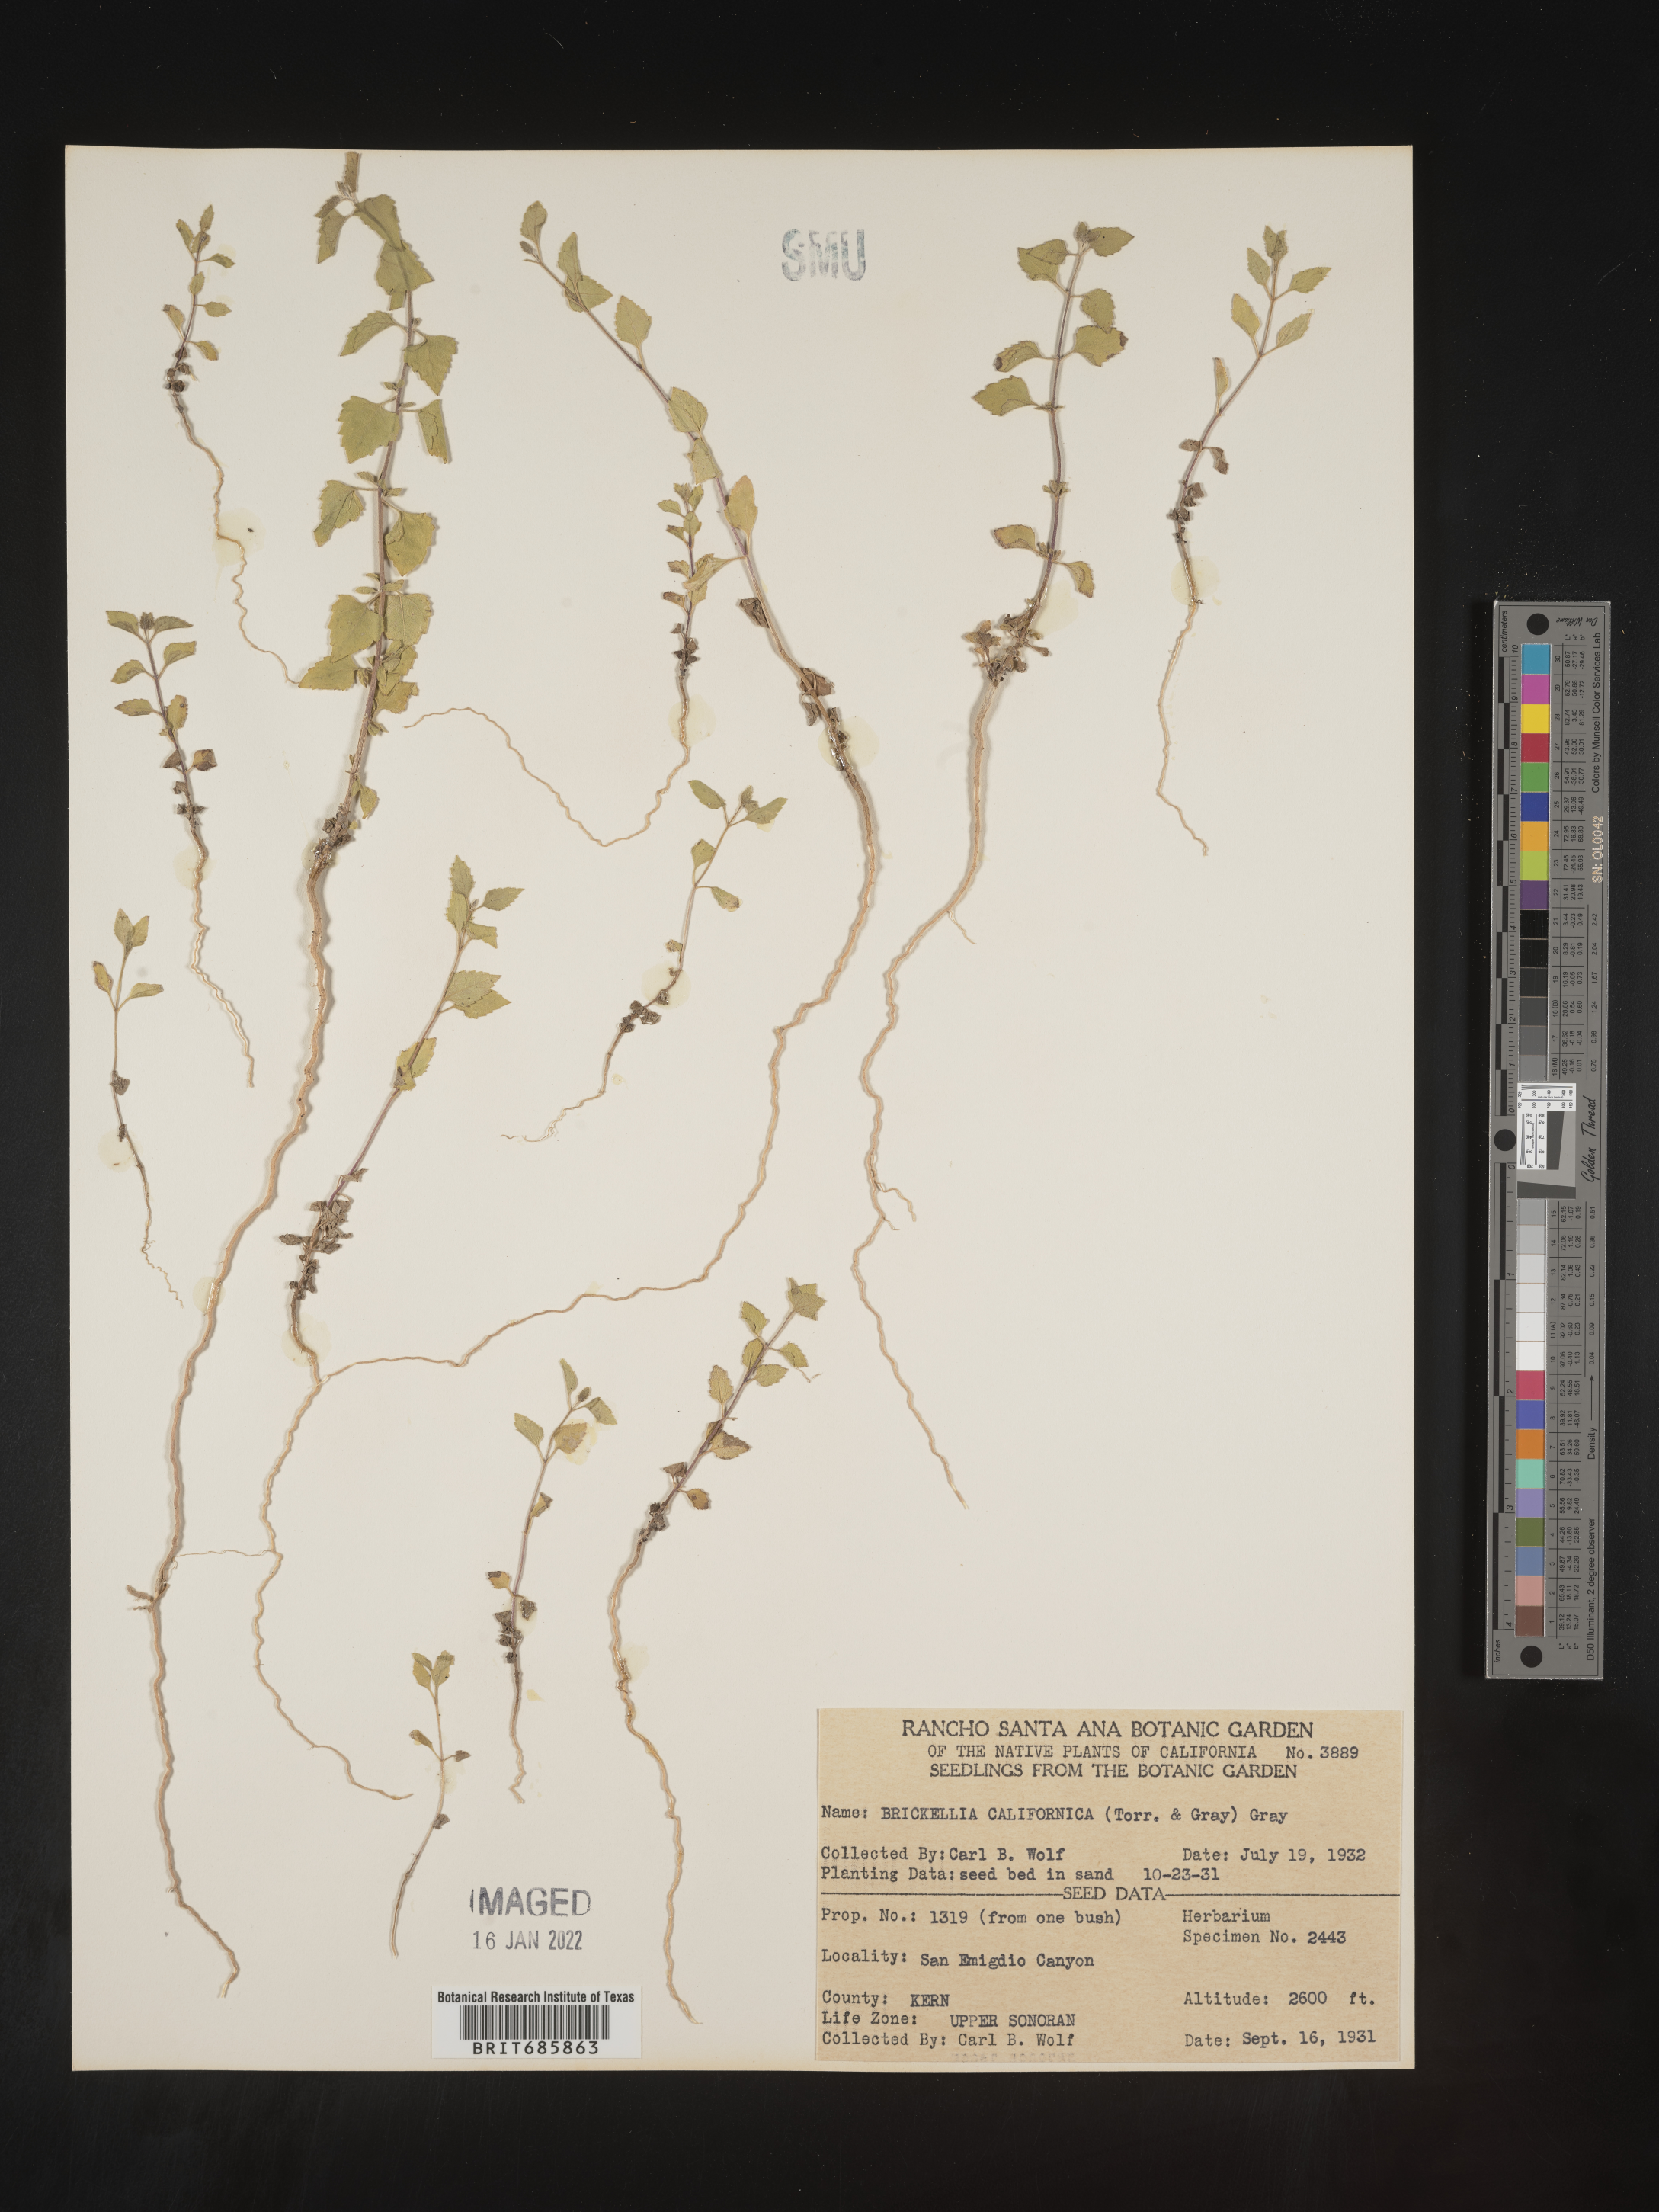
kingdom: Plantae
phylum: Tracheophyta
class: Magnoliopsida
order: Asterales
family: Asteraceae
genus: Brickellia
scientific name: Brickellia californica
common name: California brickellbush
